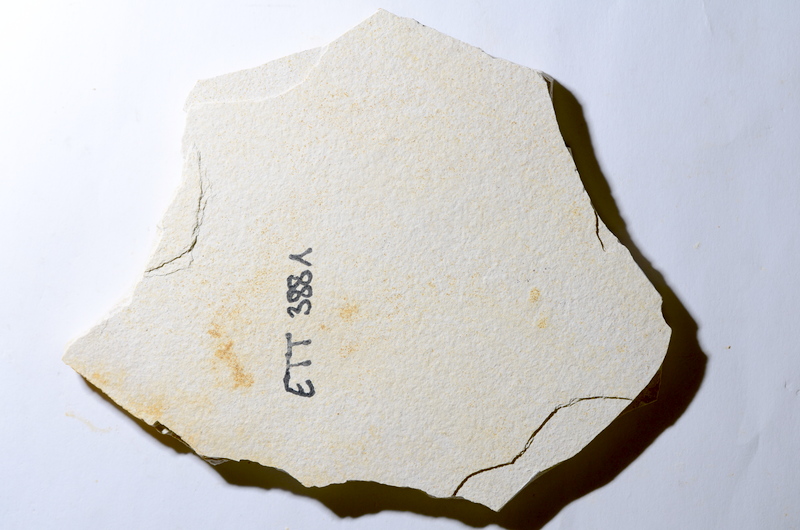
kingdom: Animalia
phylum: Chordata
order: Salmoniformes
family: Orthogonikleithridae
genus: Orthogonikleithrus
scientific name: Orthogonikleithrus hoelli
